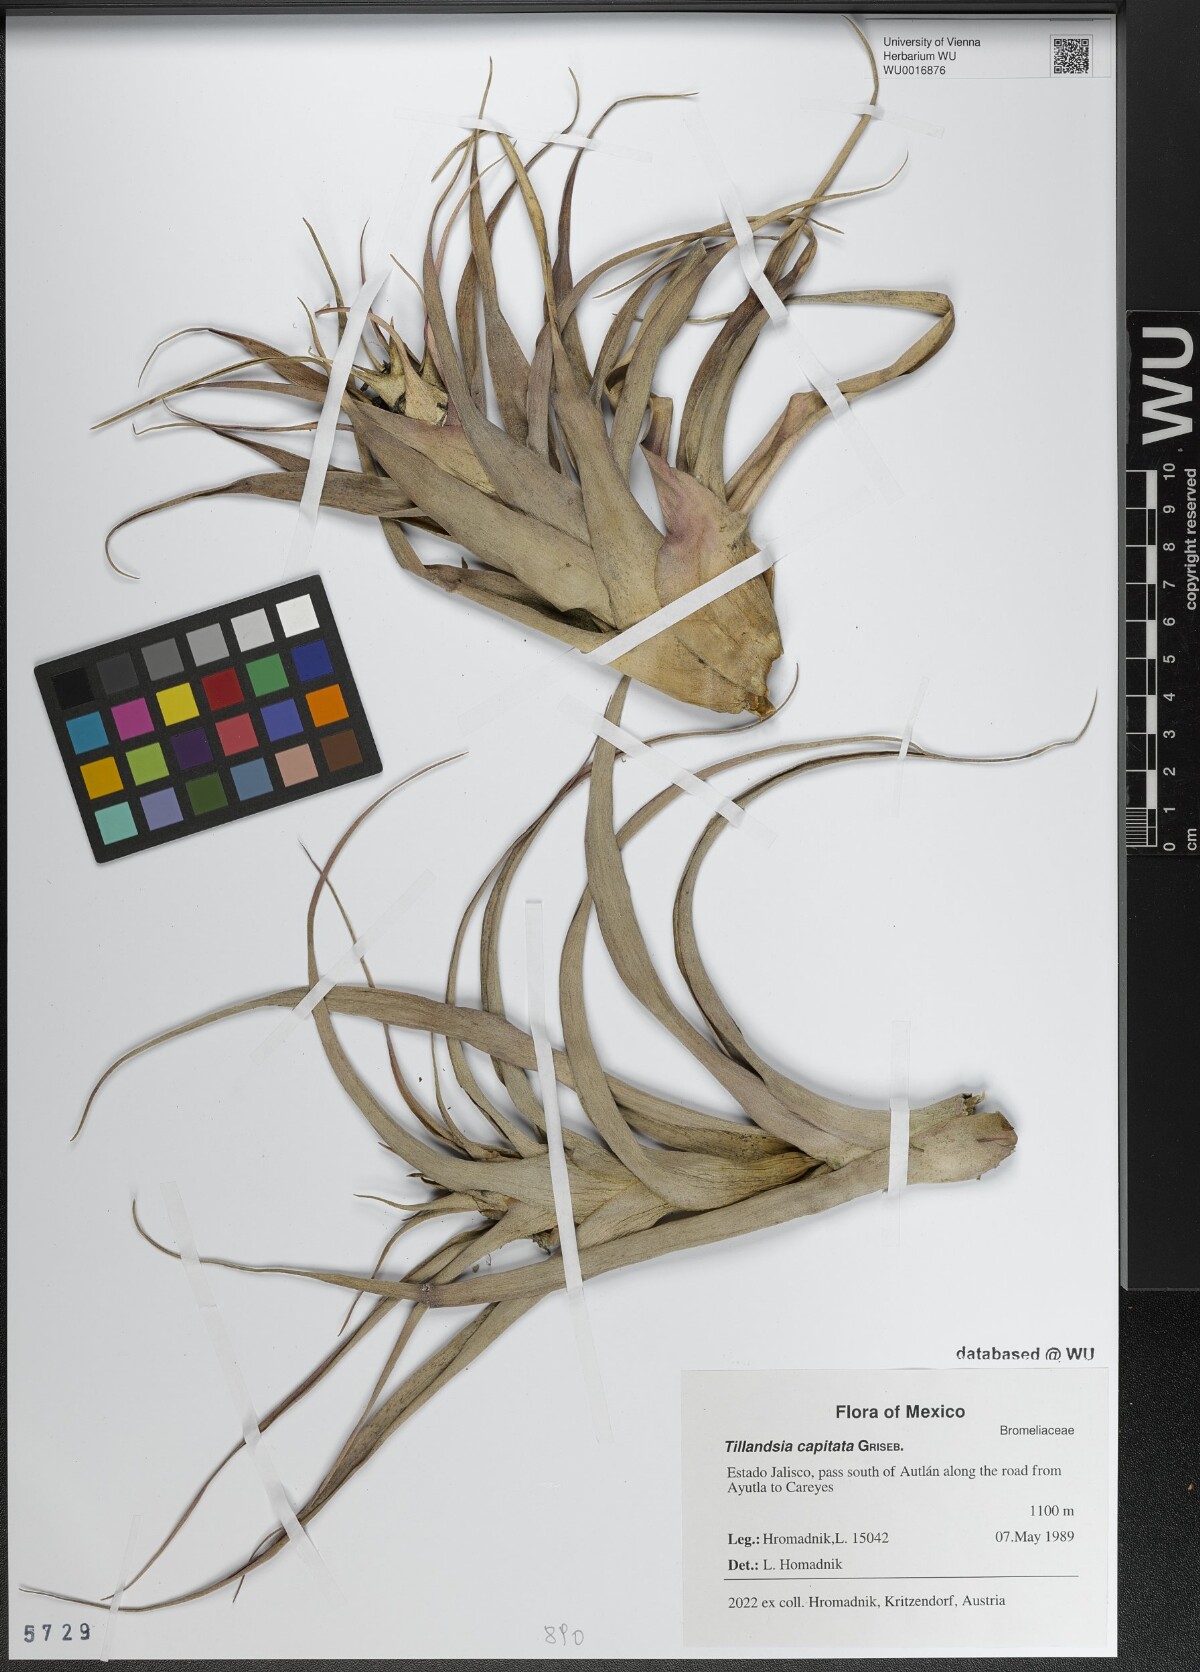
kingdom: Plantae
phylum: Tracheophyta
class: Liliopsida
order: Poales
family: Bromeliaceae
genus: Tillandsia
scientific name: Tillandsia capitata
